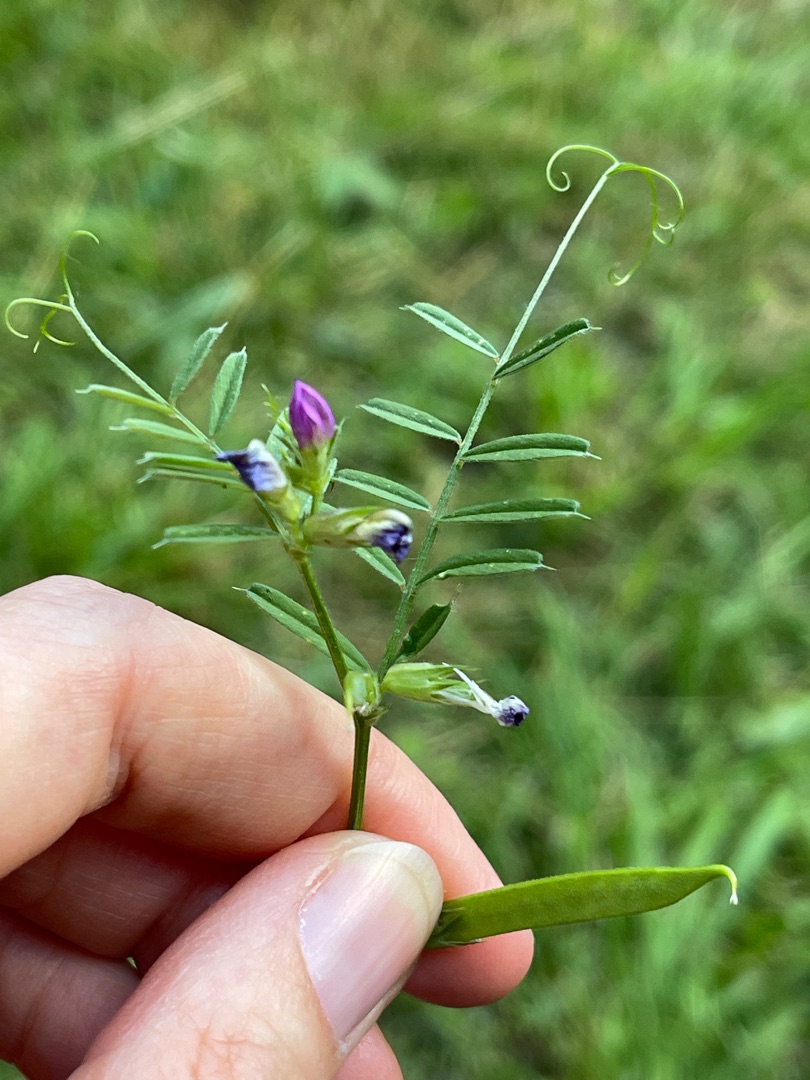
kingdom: Plantae
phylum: Tracheophyta
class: Magnoliopsida
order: Fabales
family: Fabaceae
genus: Vicia
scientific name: Vicia sativa
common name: Foder-vikke
